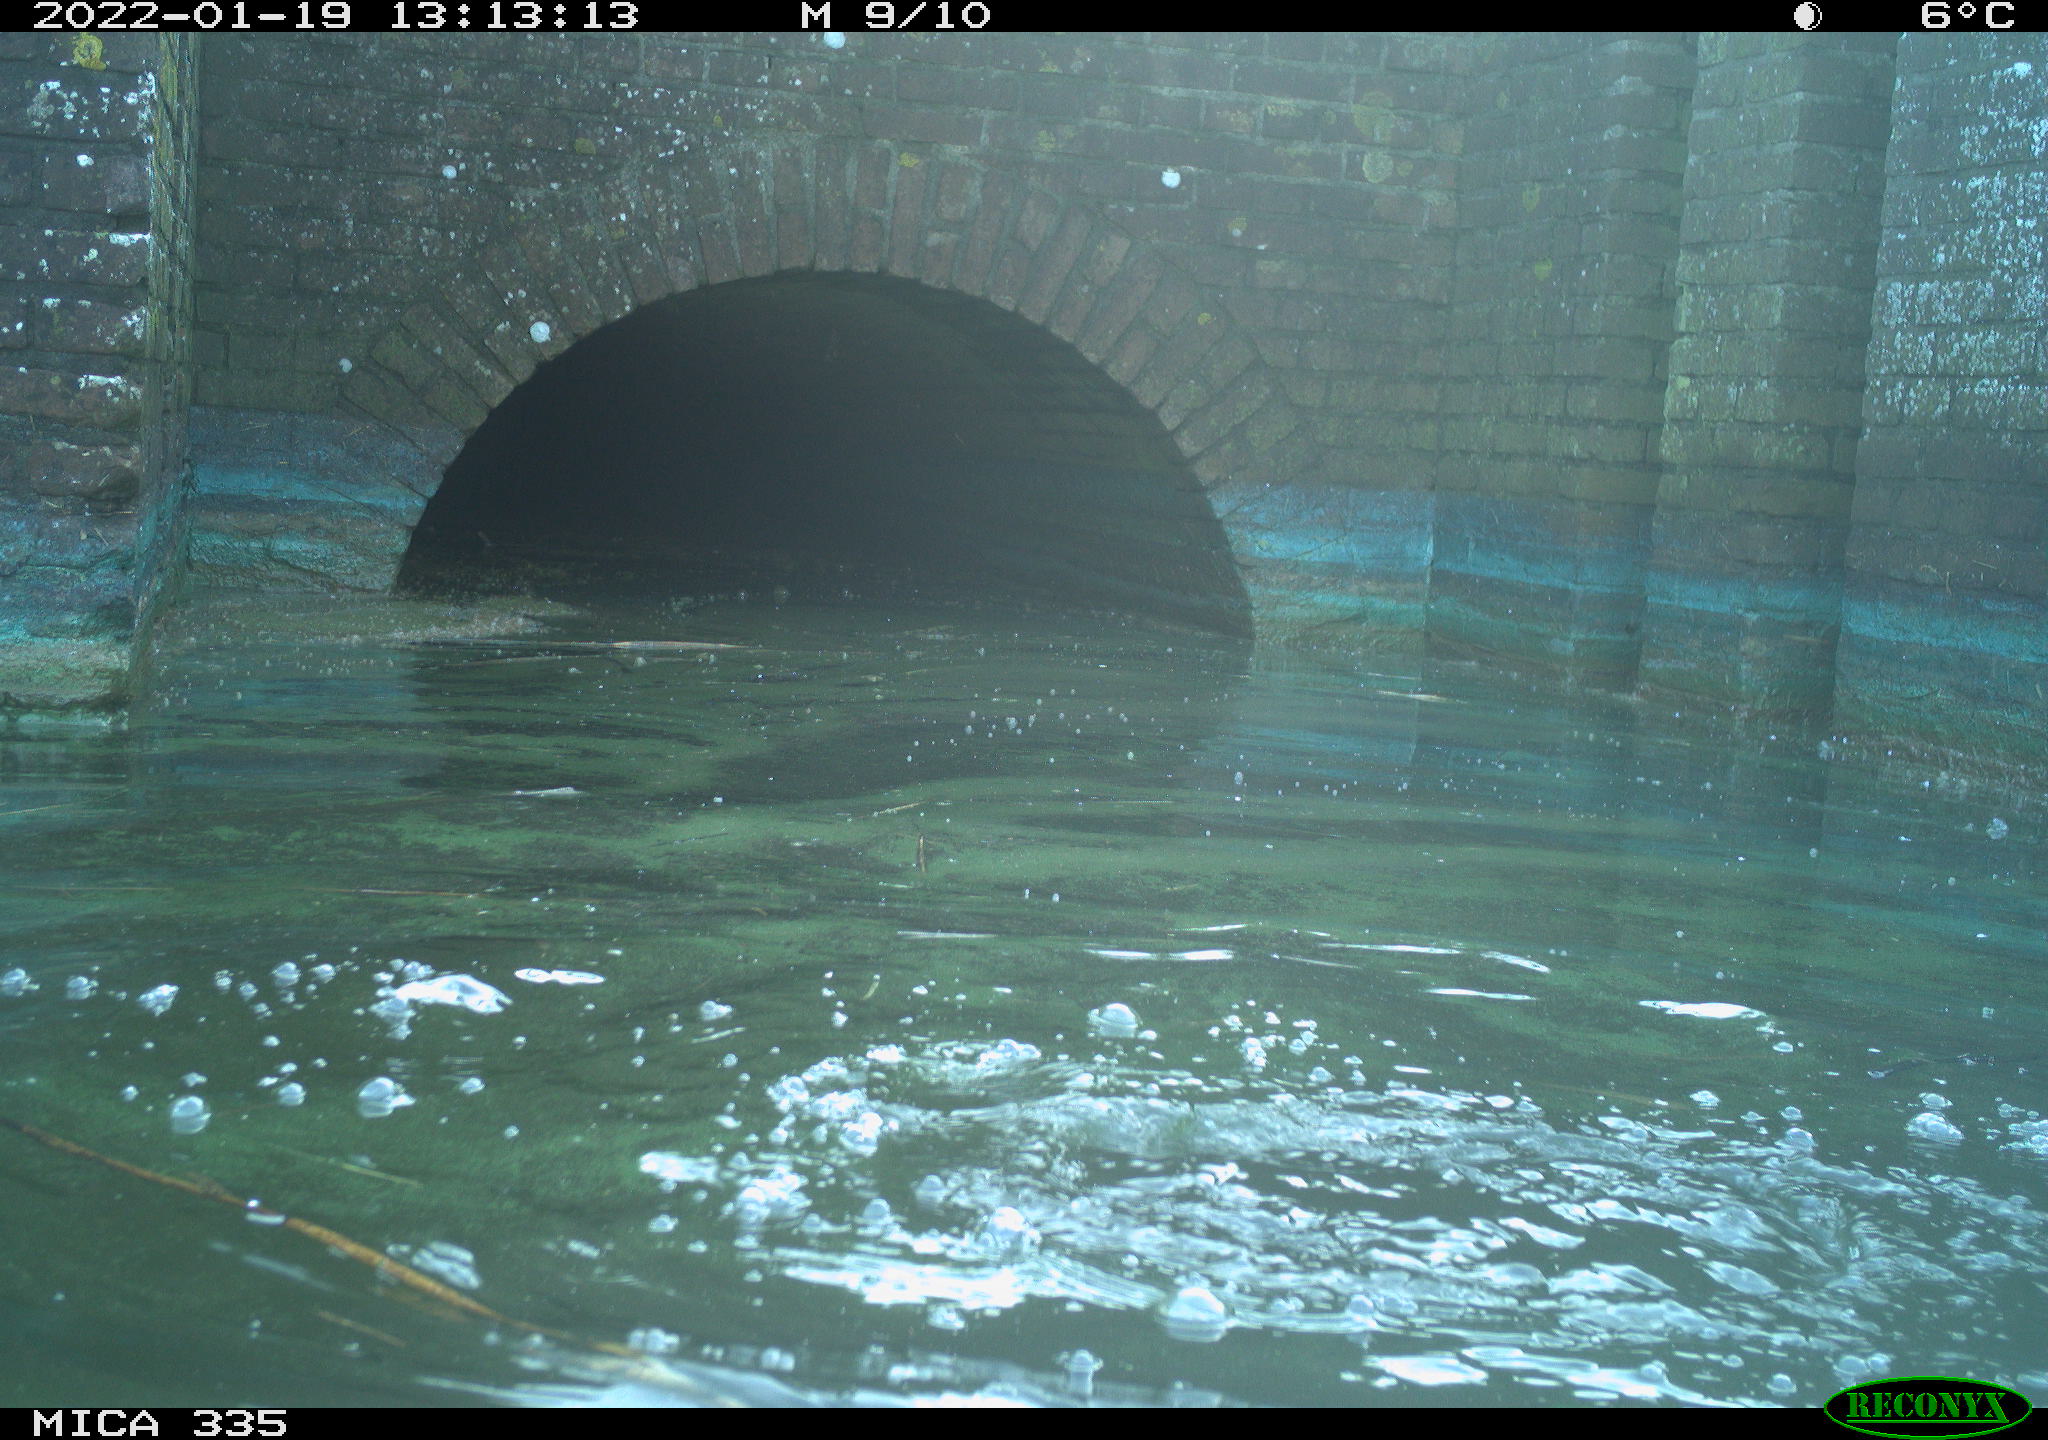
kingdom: Animalia
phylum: Chordata
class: Aves
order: Suliformes
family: Phalacrocoracidae
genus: Phalacrocorax
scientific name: Phalacrocorax carbo
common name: Great cormorant
